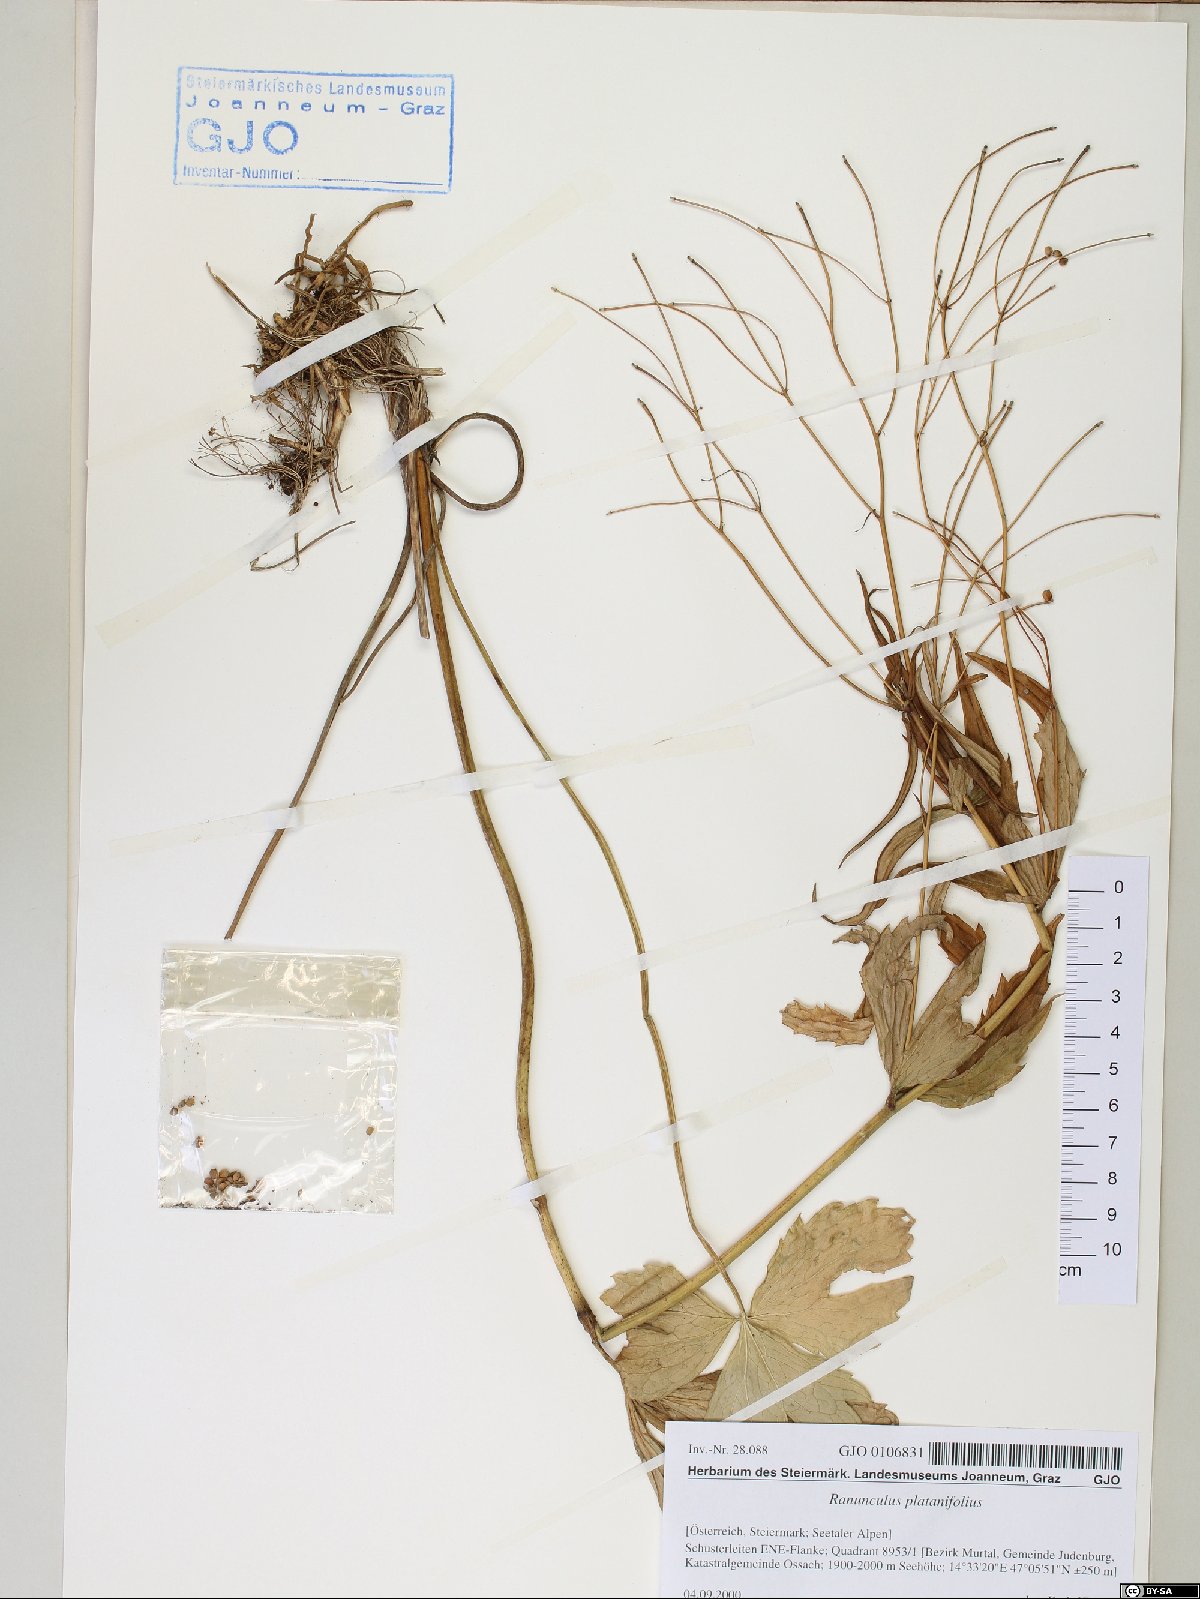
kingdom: Plantae
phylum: Tracheophyta
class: Magnoliopsida
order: Ranunculales
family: Ranunculaceae
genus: Ranunculus
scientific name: Ranunculus platanifolius
